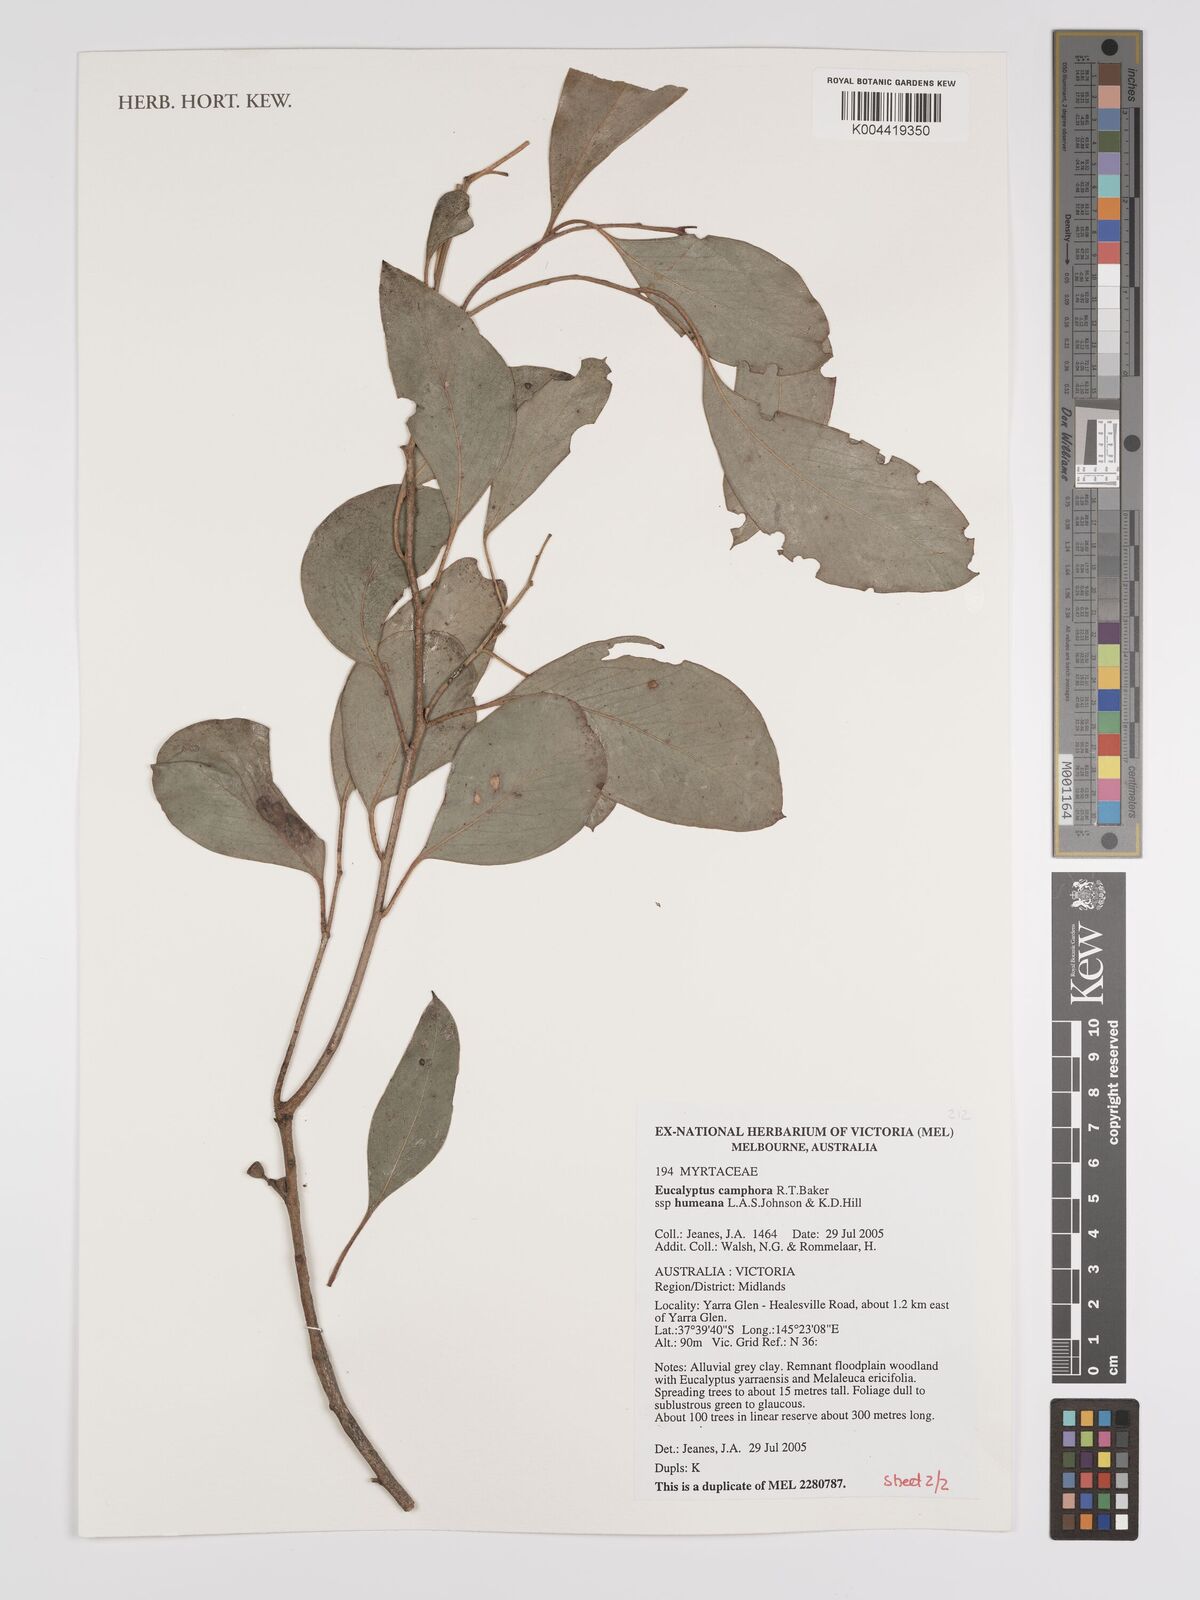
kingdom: Plantae
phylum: Tracheophyta
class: Magnoliopsida
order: Myrtales
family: Myrtaceae
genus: Eucalyptus
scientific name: Eucalyptus camphora
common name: Mountain swamp gum
